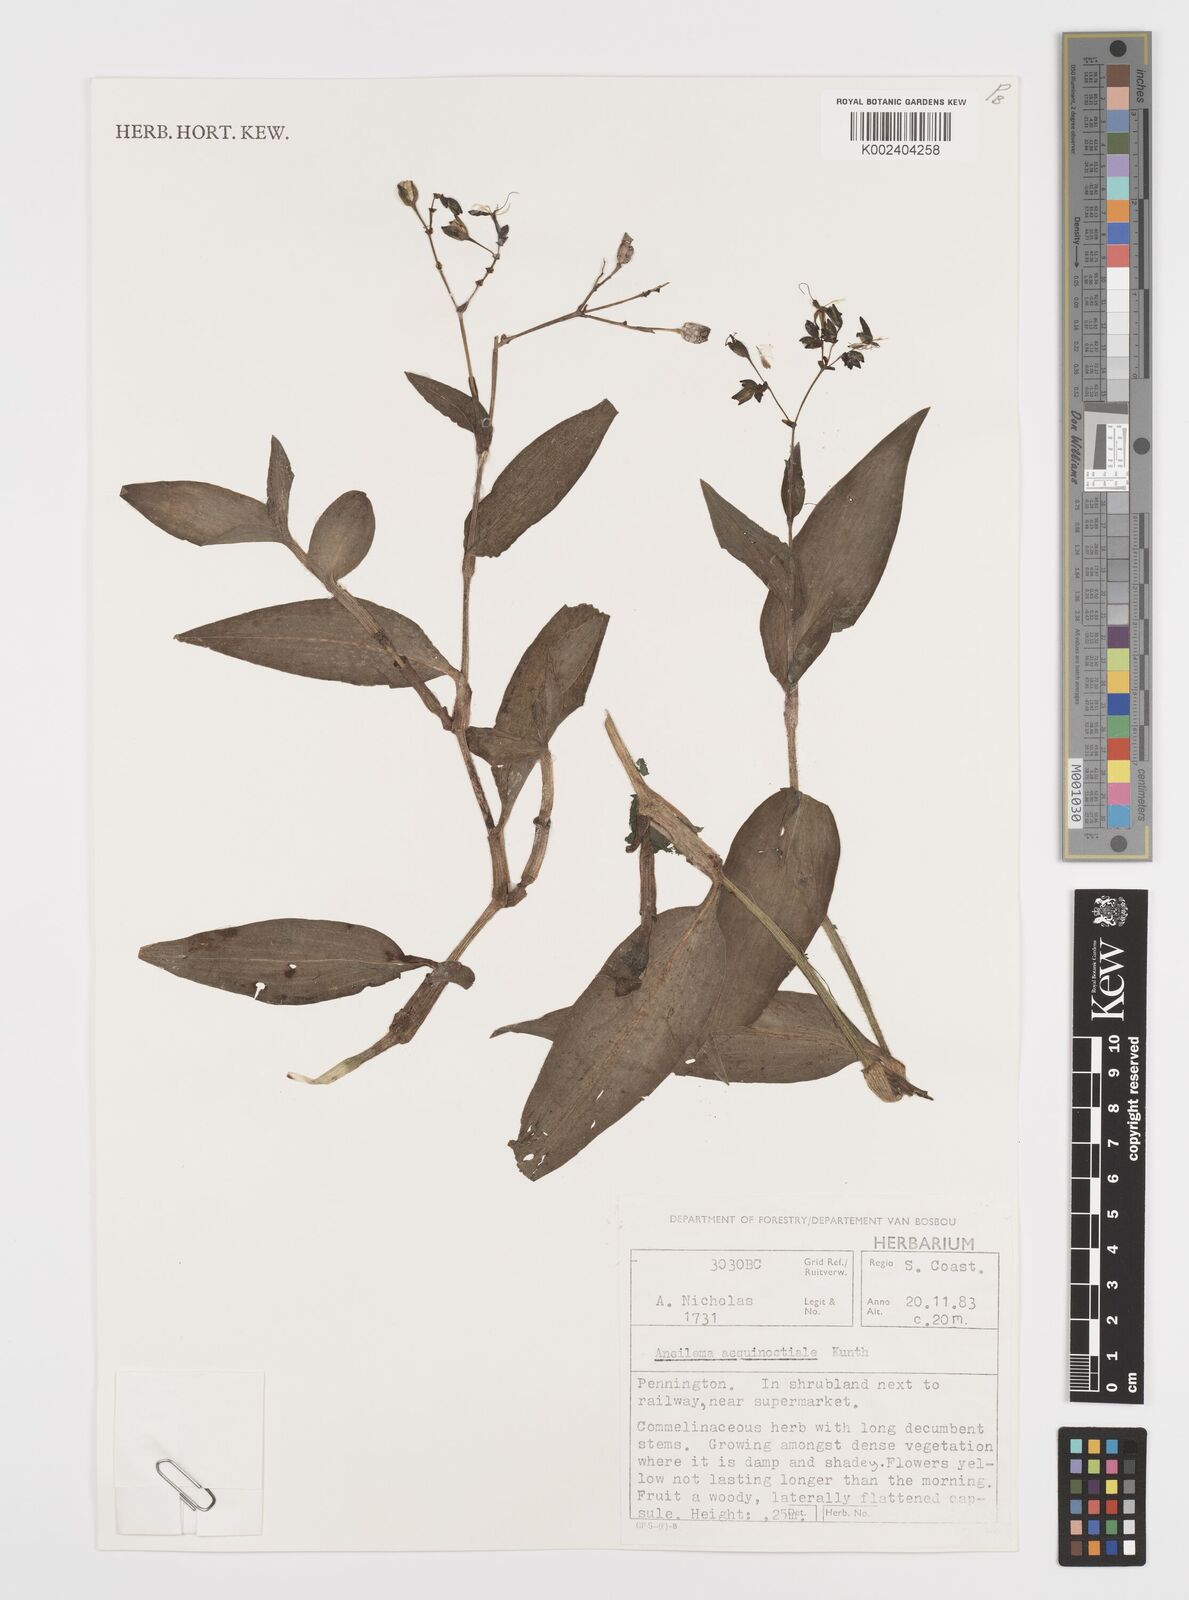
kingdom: Plantae
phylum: Tracheophyta
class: Liliopsida
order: Commelinales
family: Commelinaceae
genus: Aneilema
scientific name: Aneilema aequinoctiale
